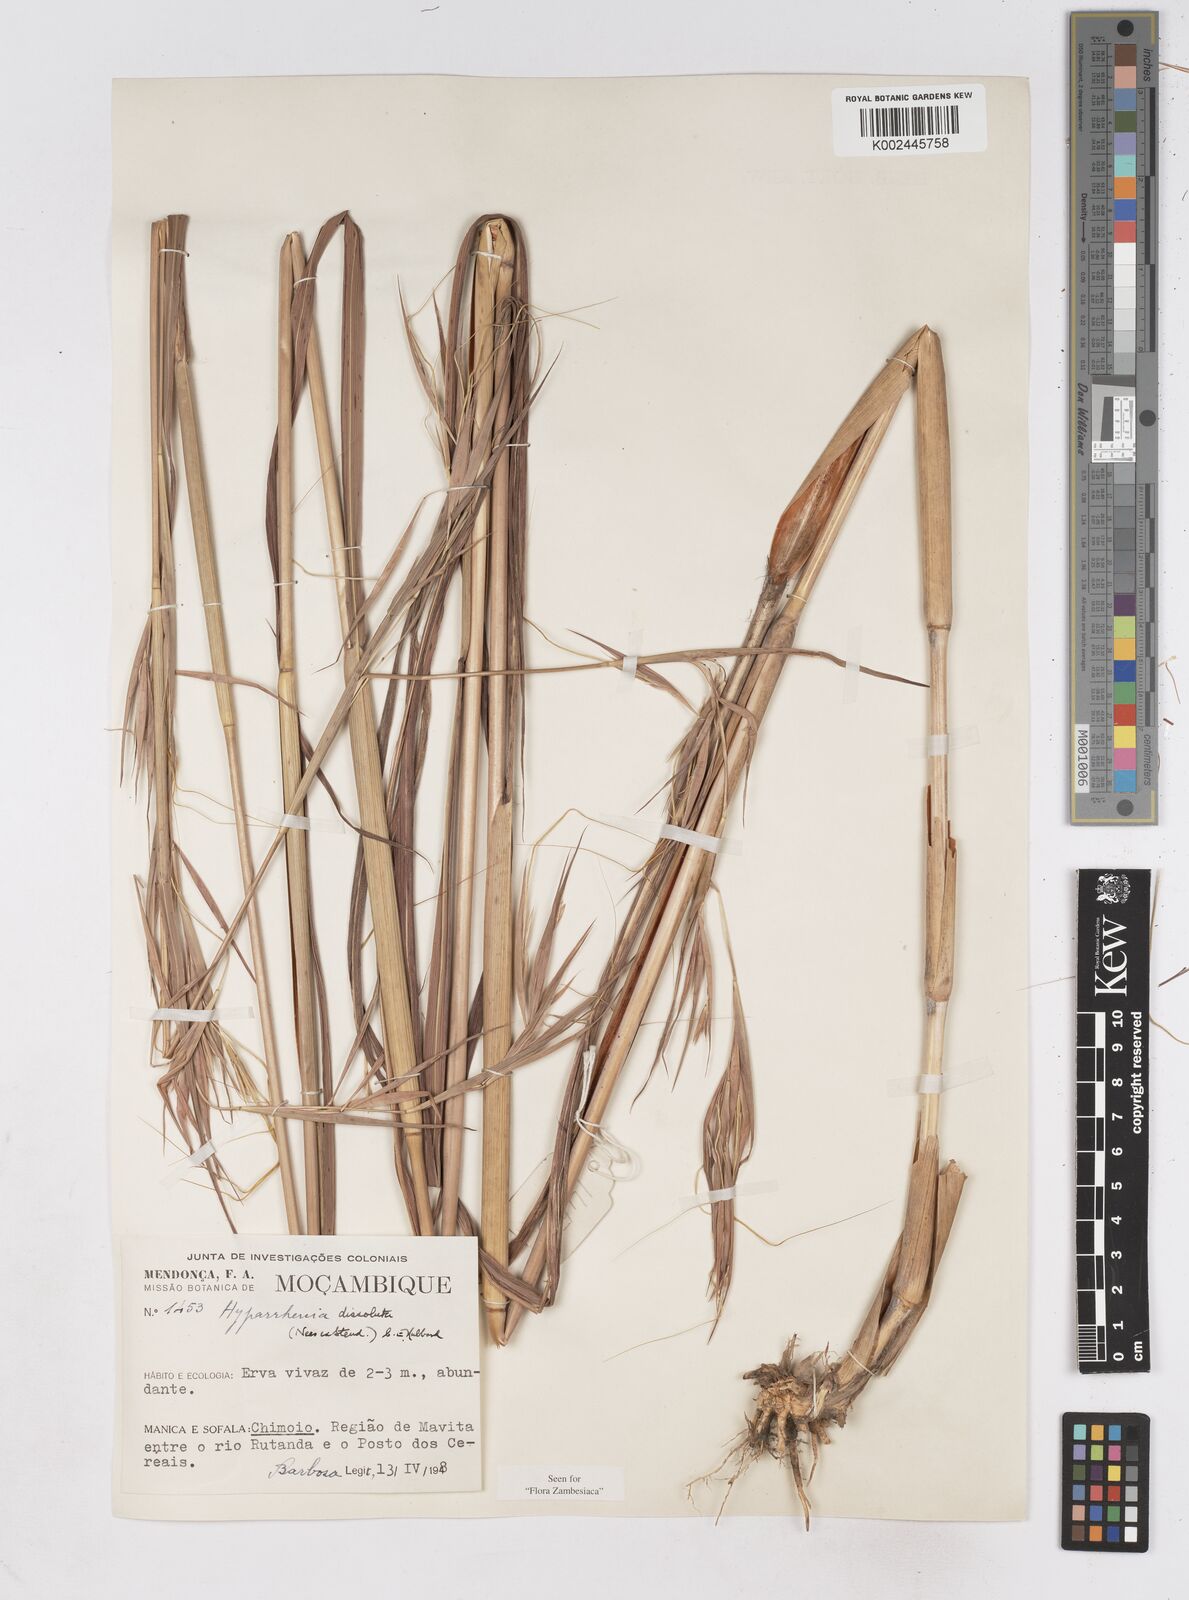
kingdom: Plantae
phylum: Tracheophyta
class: Liliopsida
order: Poales
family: Poaceae
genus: Hyperthelia
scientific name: Hyperthelia dissoluta
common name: Yellow thatching grass
